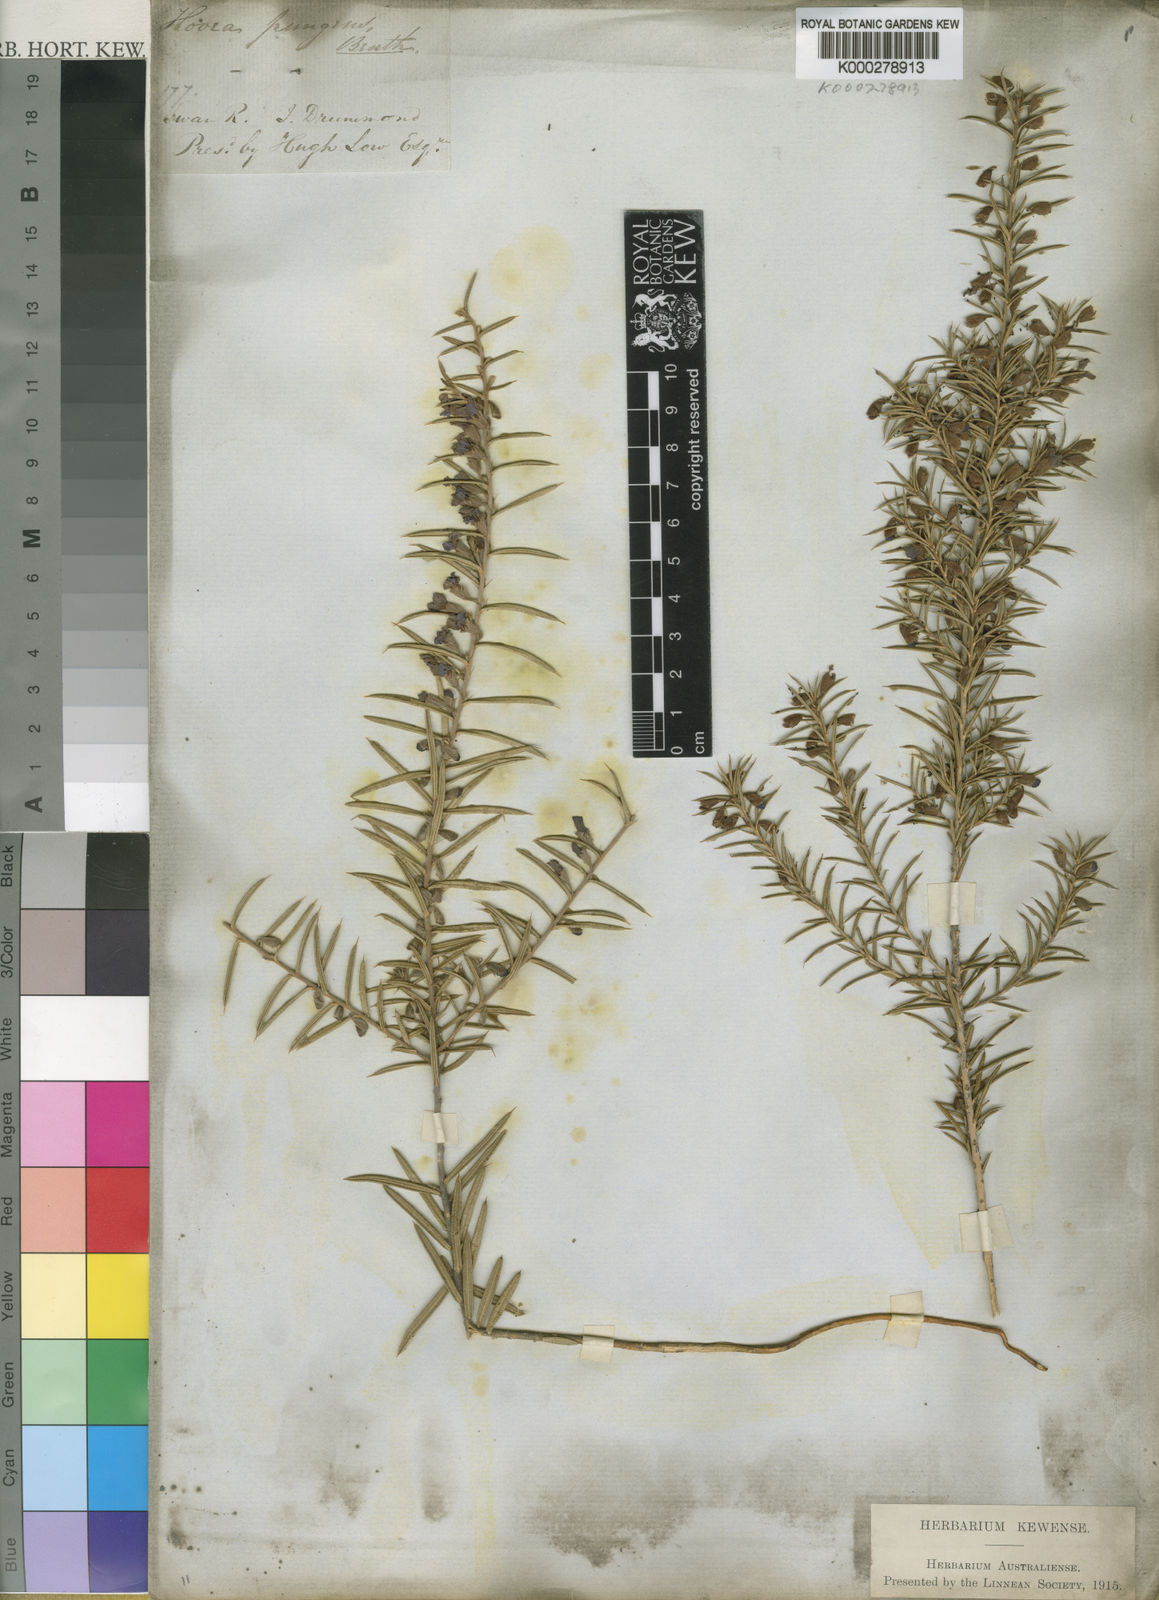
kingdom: Plantae
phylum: Tracheophyta
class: Magnoliopsida
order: Fabales
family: Fabaceae
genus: Hovea
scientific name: Hovea pungens
